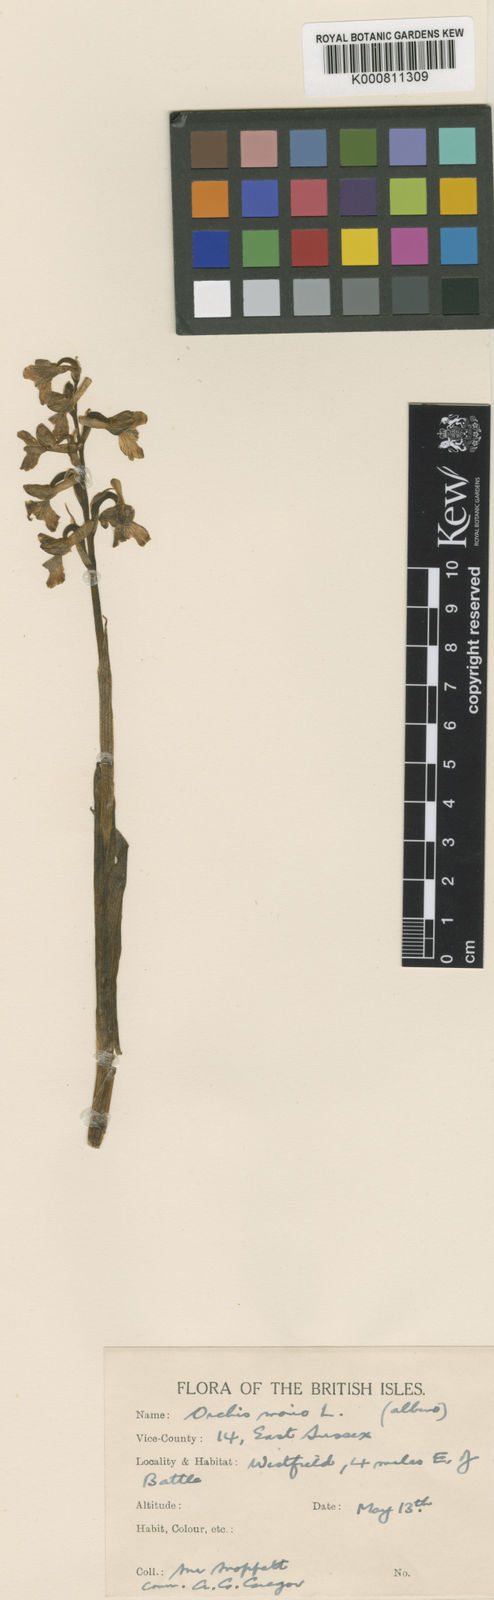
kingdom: Plantae
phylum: Tracheophyta
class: Liliopsida
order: Asparagales
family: Orchidaceae
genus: Anacamptis
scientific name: Anacamptis morio
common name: Green-winged orchid
